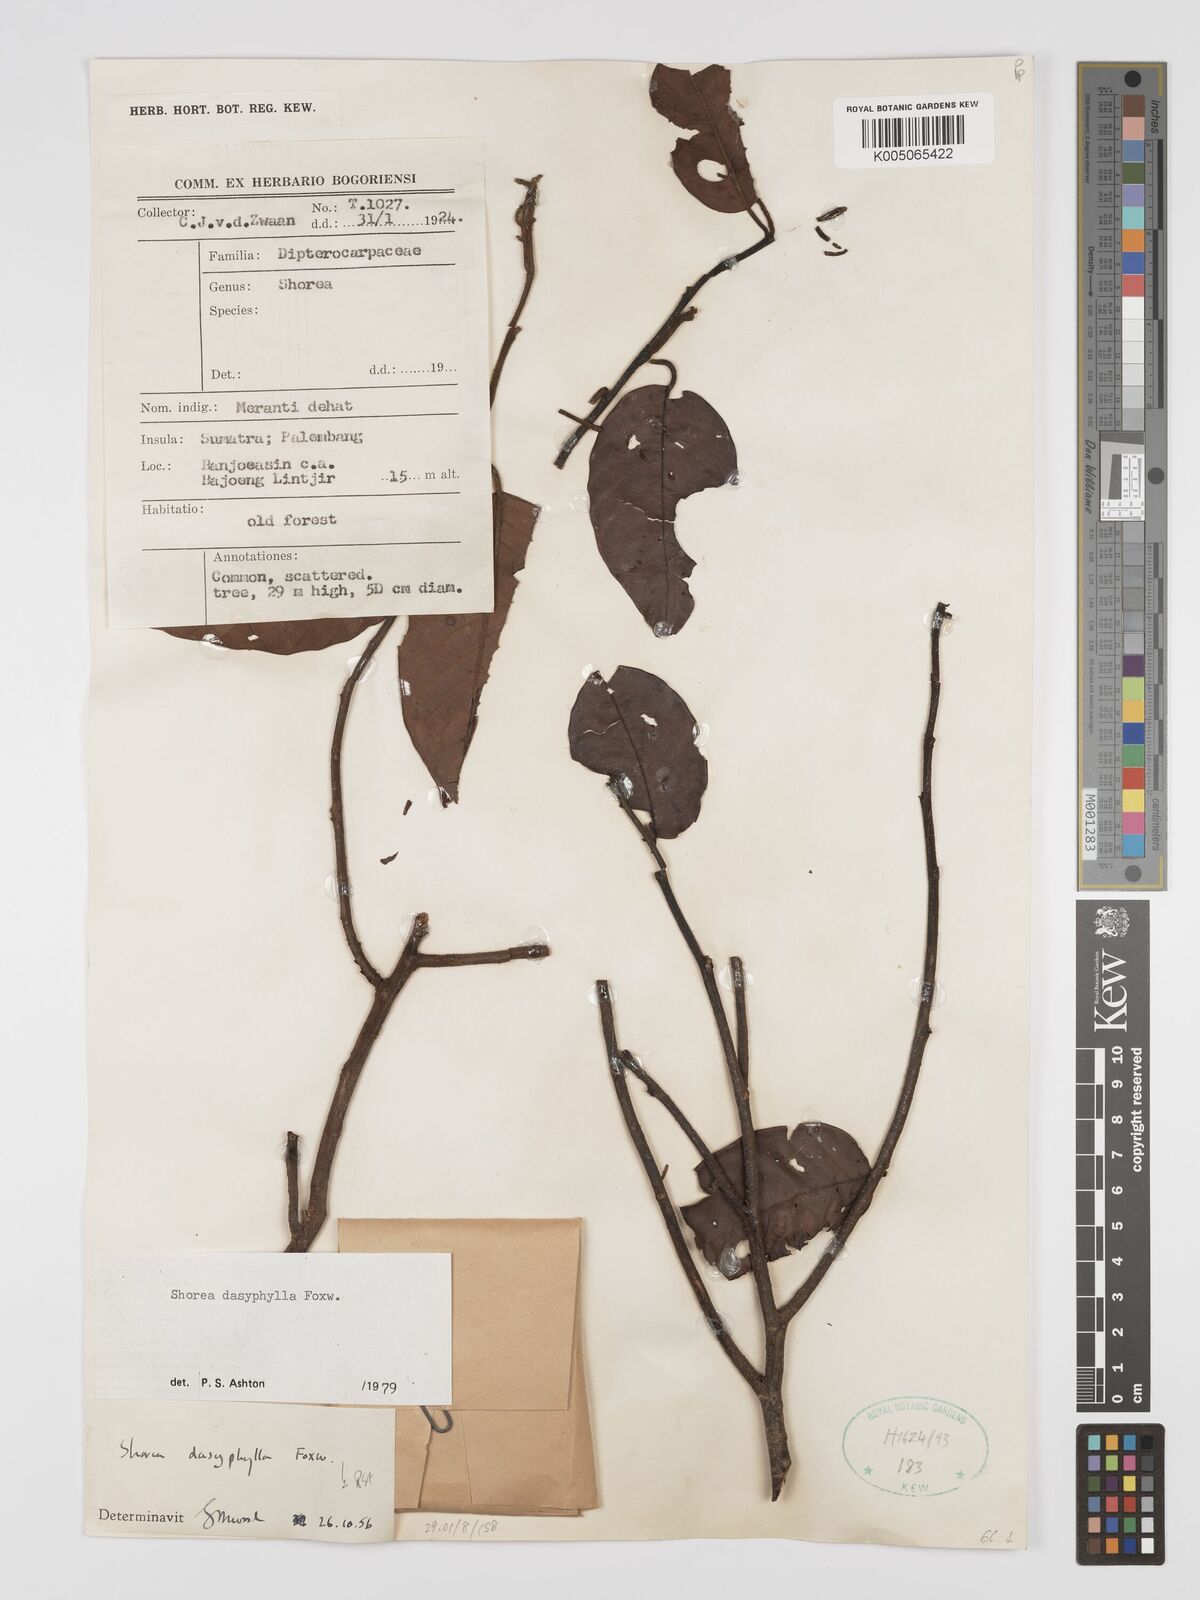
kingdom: Plantae
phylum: Tracheophyta
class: Magnoliopsida
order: Malvales
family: Dipterocarpaceae
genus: Shorea
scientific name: Shorea dasyphylla
